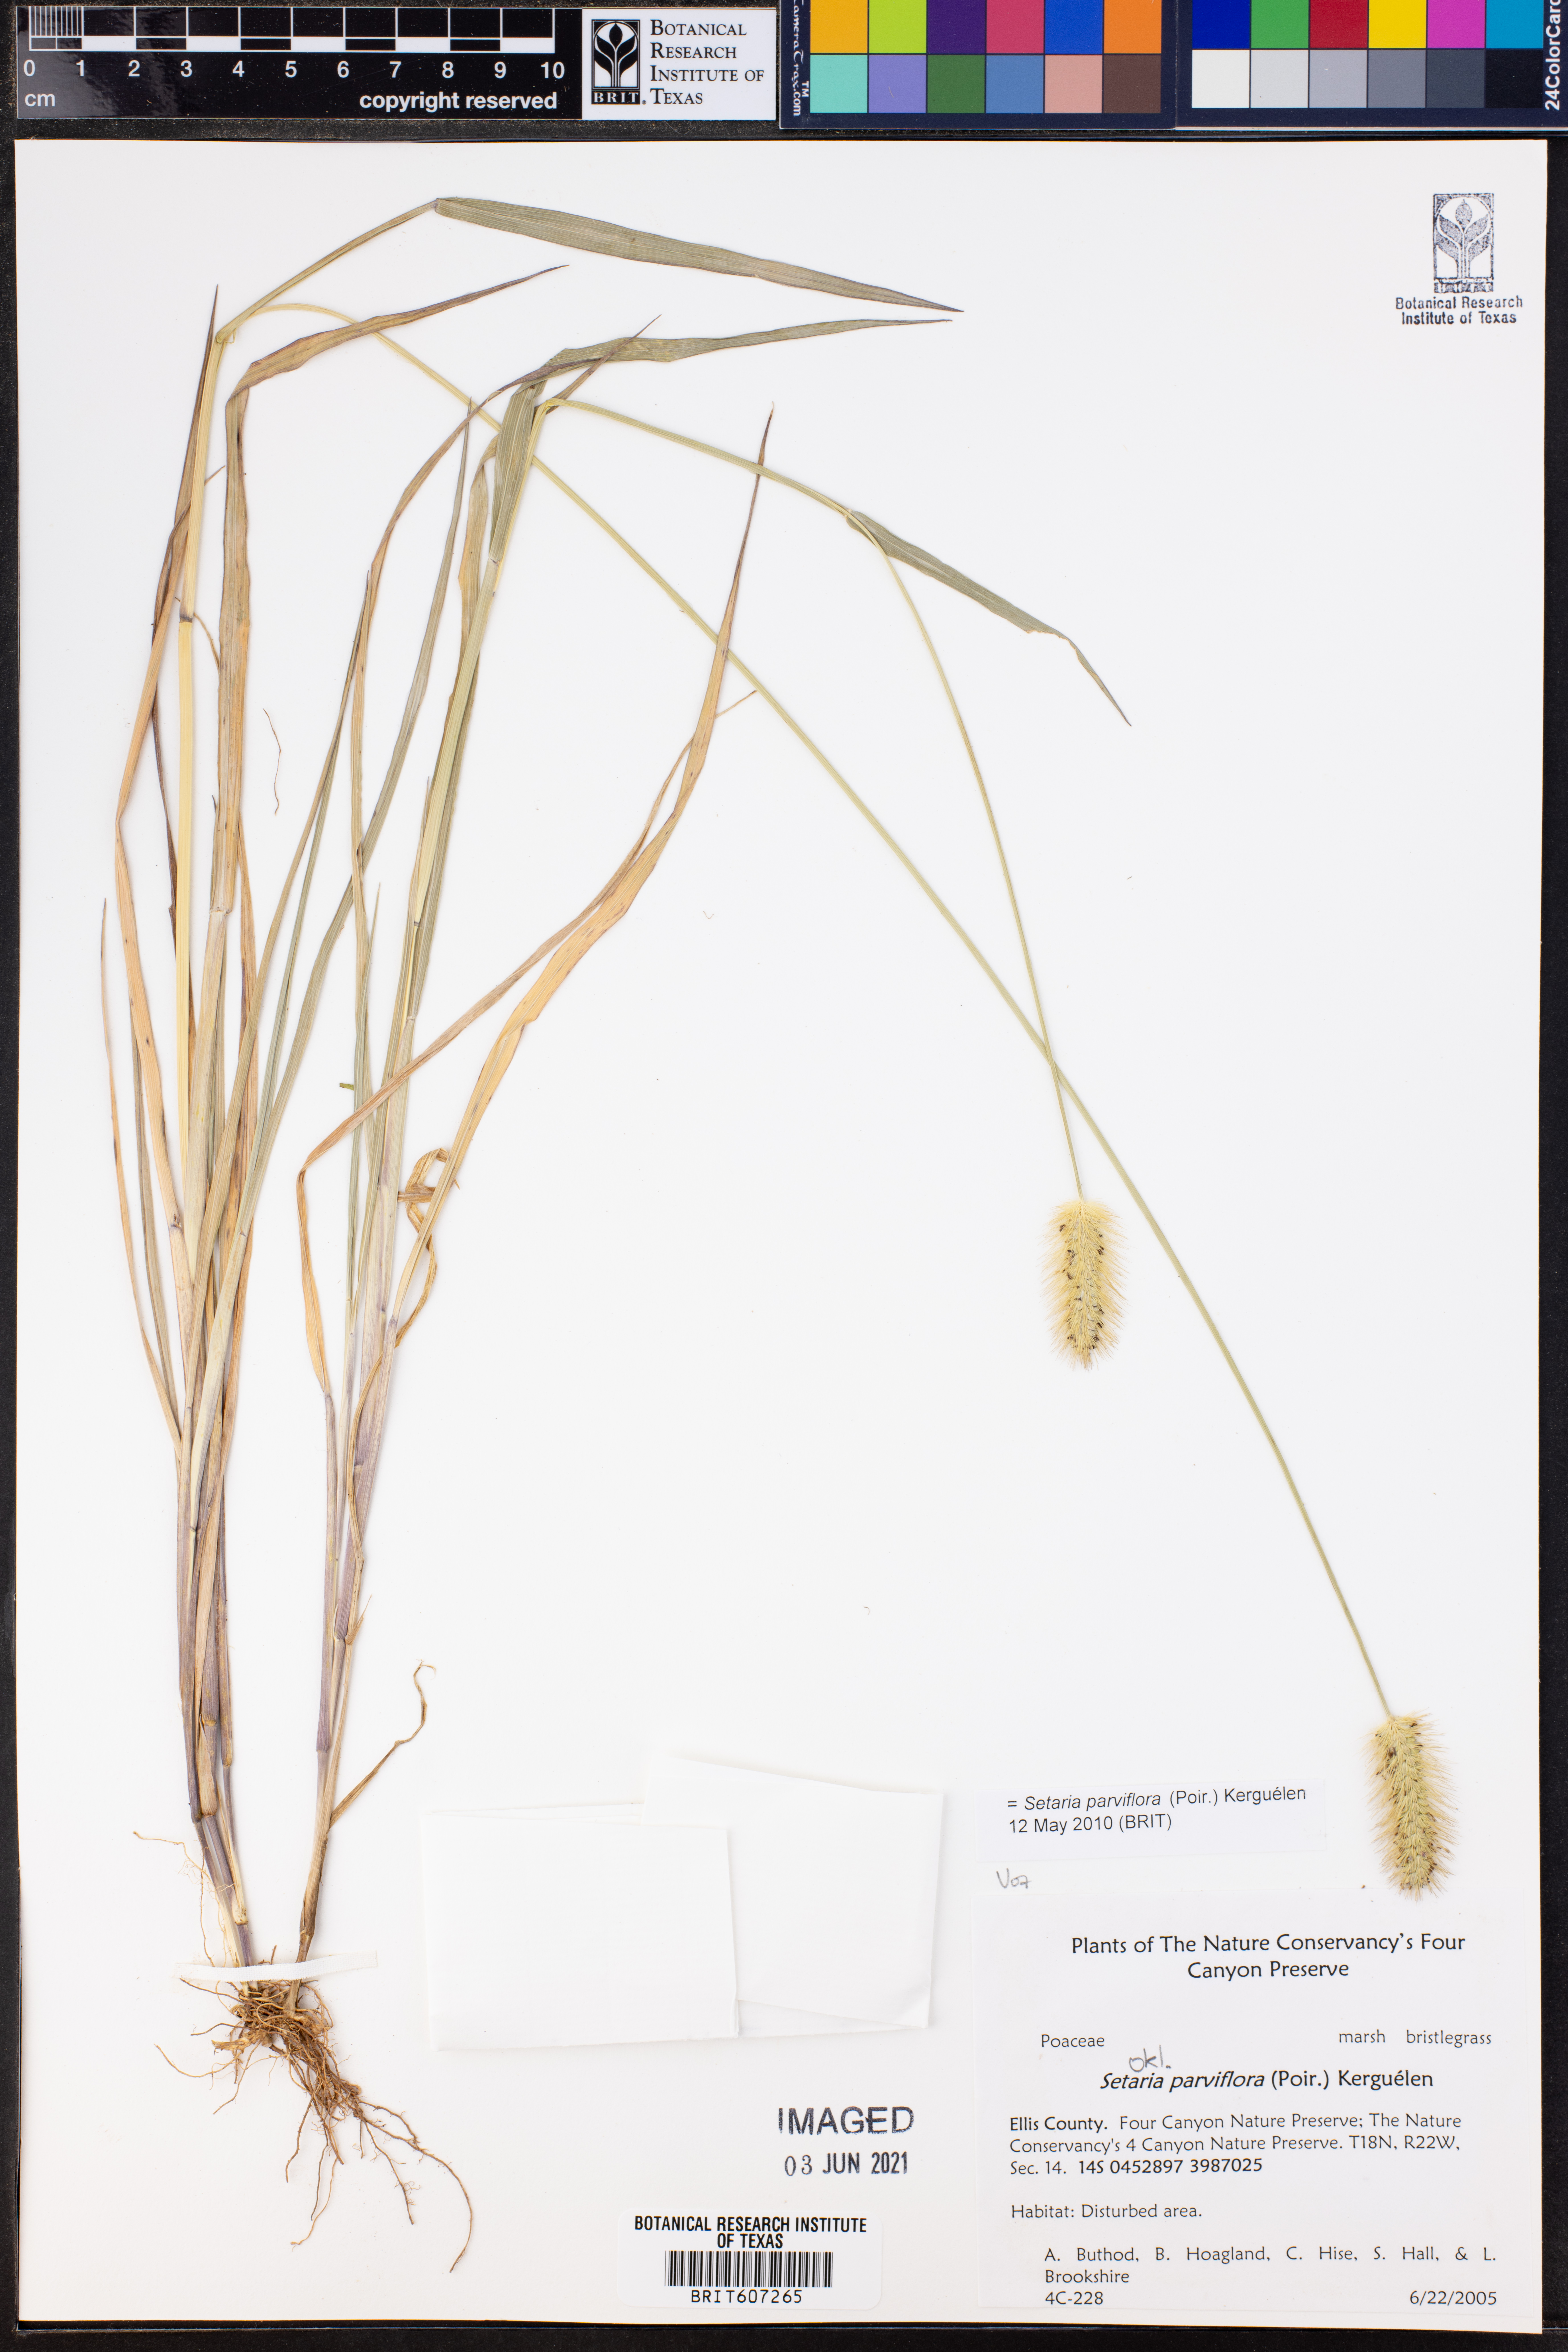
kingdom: Plantae
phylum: Tracheophyta
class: Liliopsida
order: Poales
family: Poaceae
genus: Setaria
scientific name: Setaria parviflora
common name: Knotroot bristle-grass
